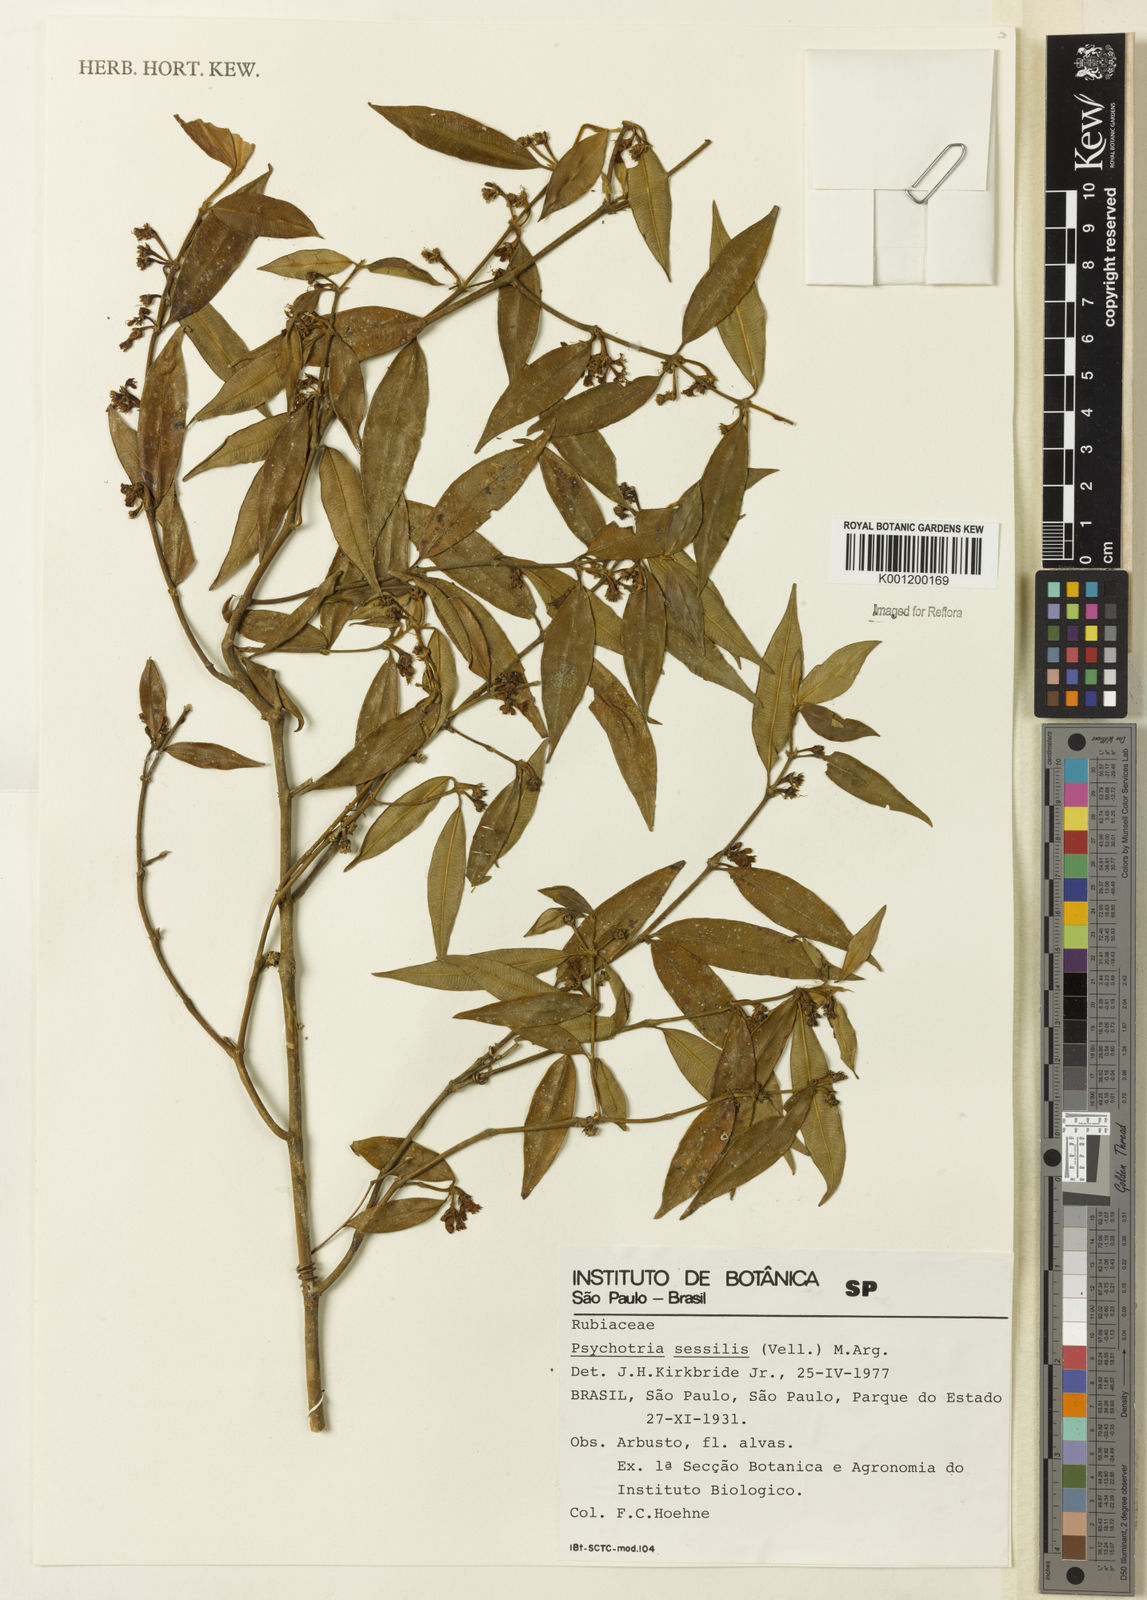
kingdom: Plantae
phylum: Tracheophyta
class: Magnoliopsida
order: Gentianales
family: Rubiaceae
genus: Rudgea
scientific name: Rudgea sessilis
